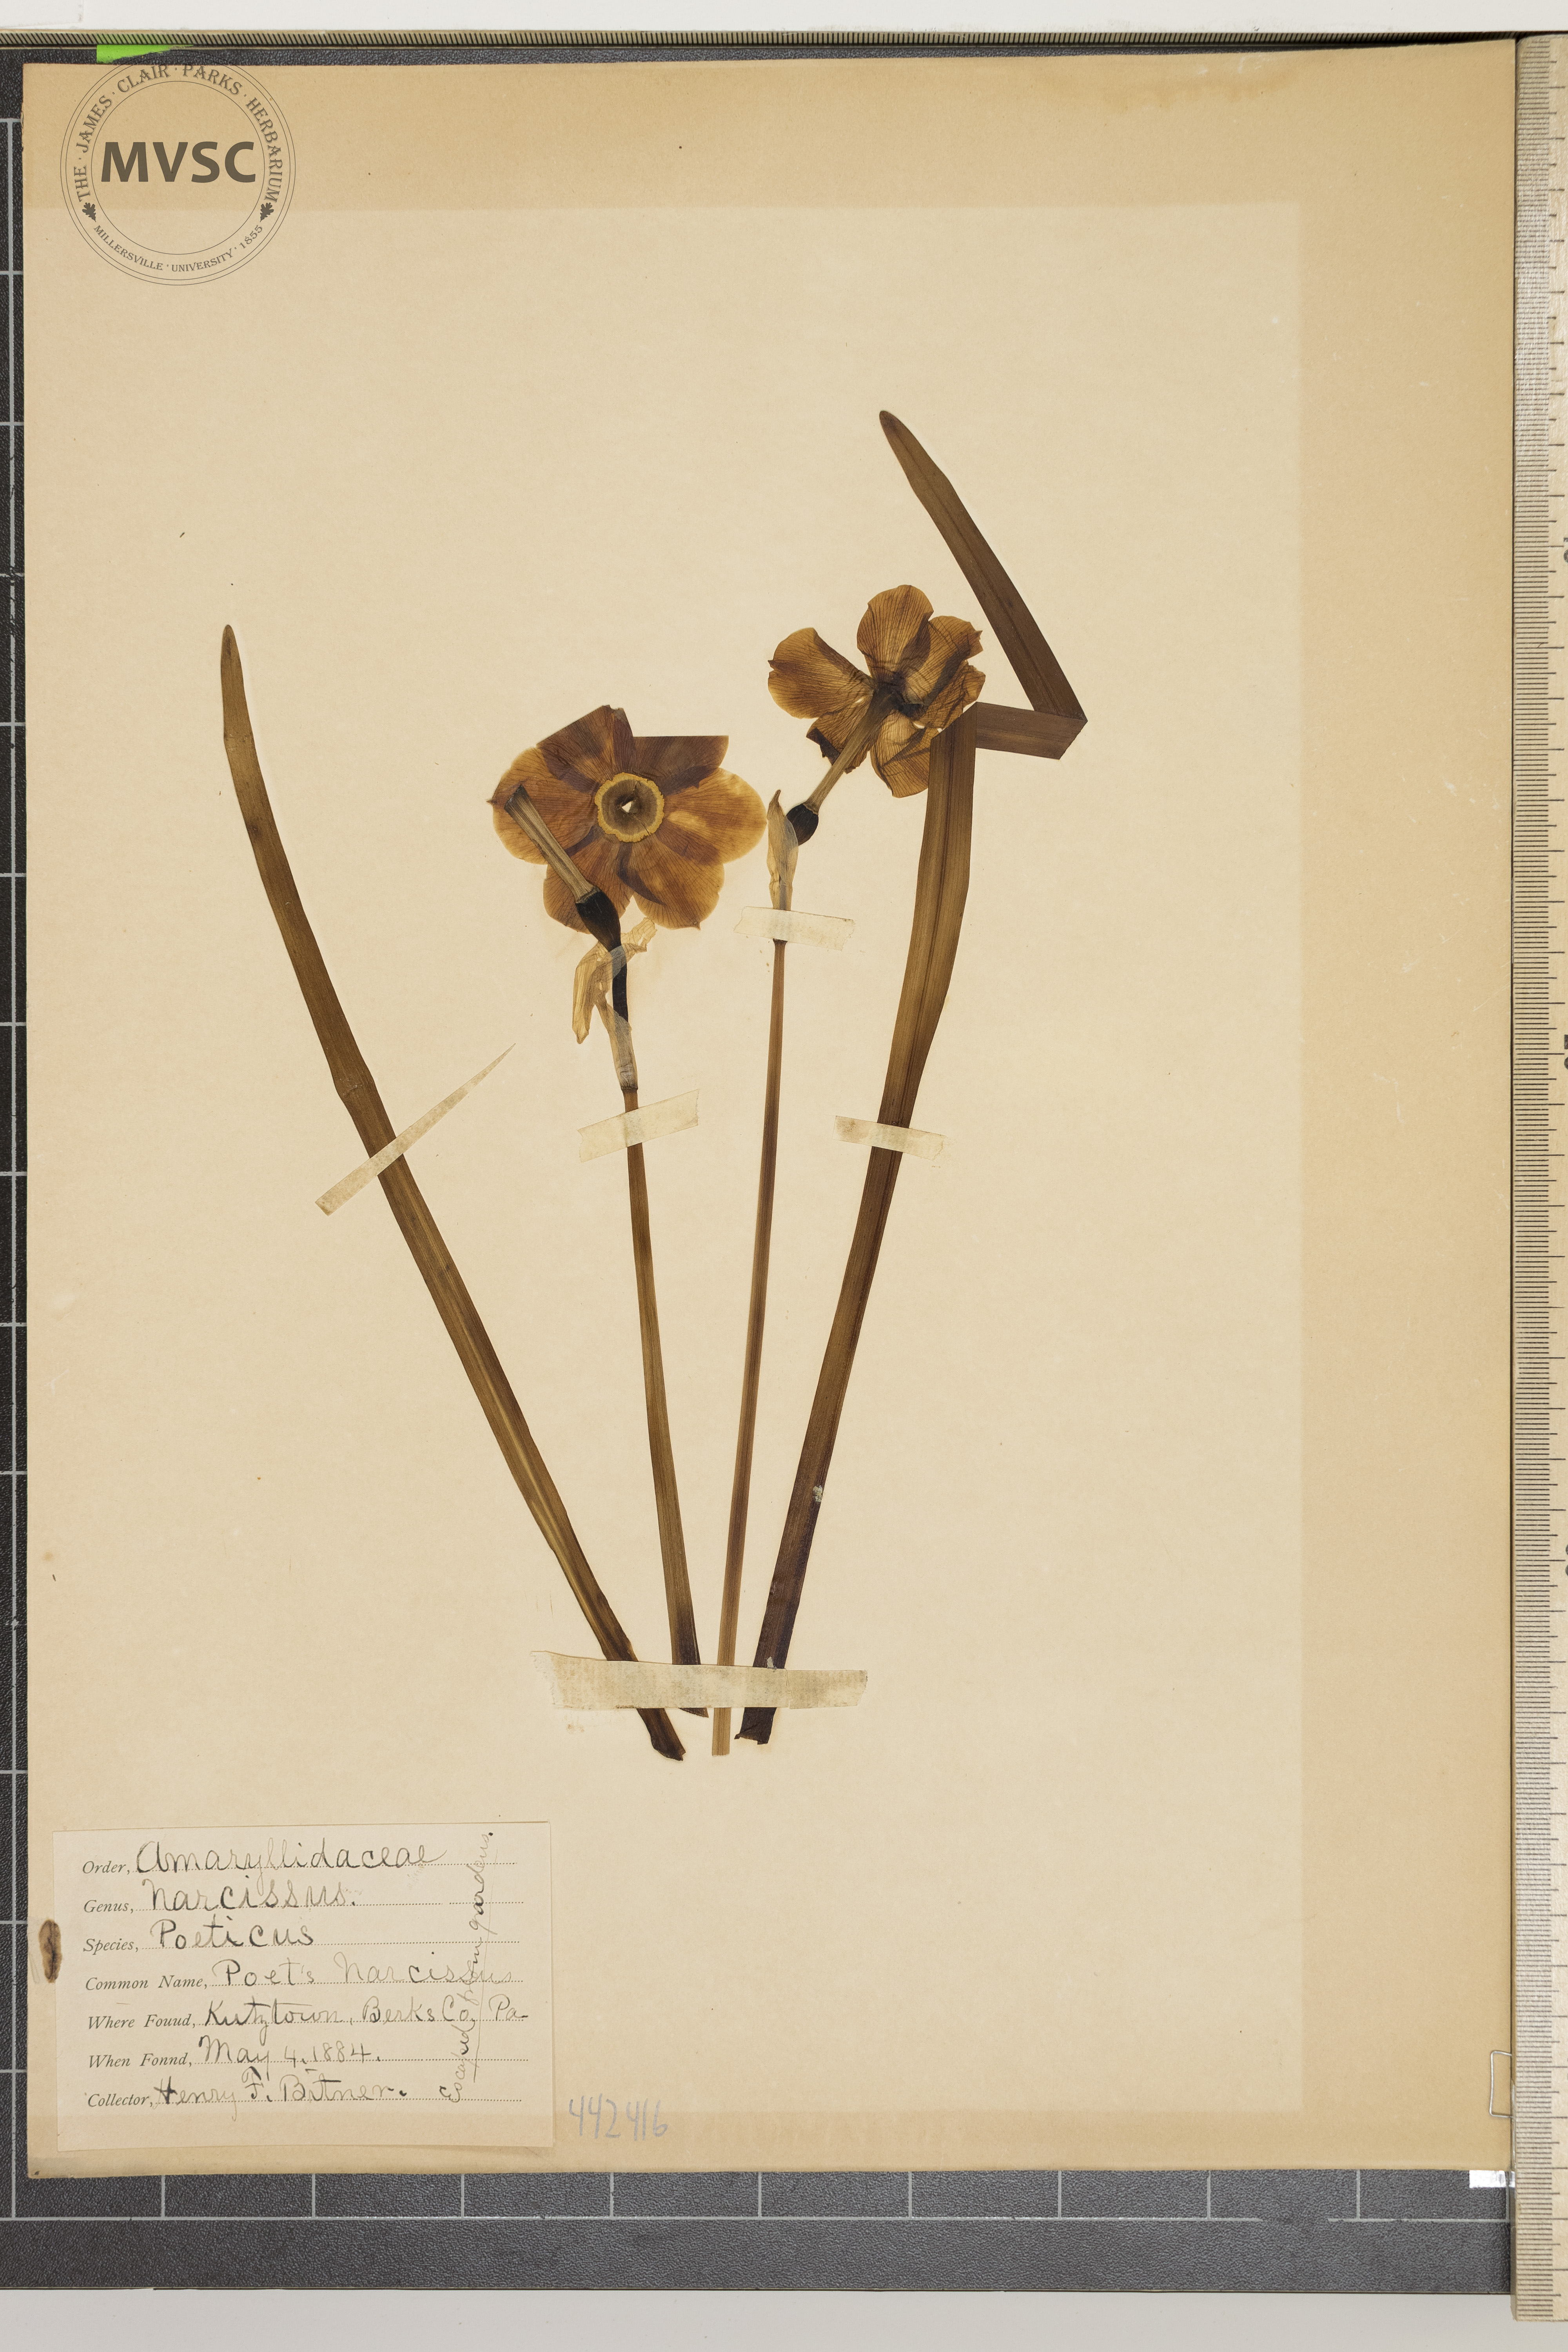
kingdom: Plantae
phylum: Tracheophyta
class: Liliopsida
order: Asparagales
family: Amaryllidaceae
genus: Narcissus
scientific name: Narcissus poeticus
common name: Poet's narcissus
